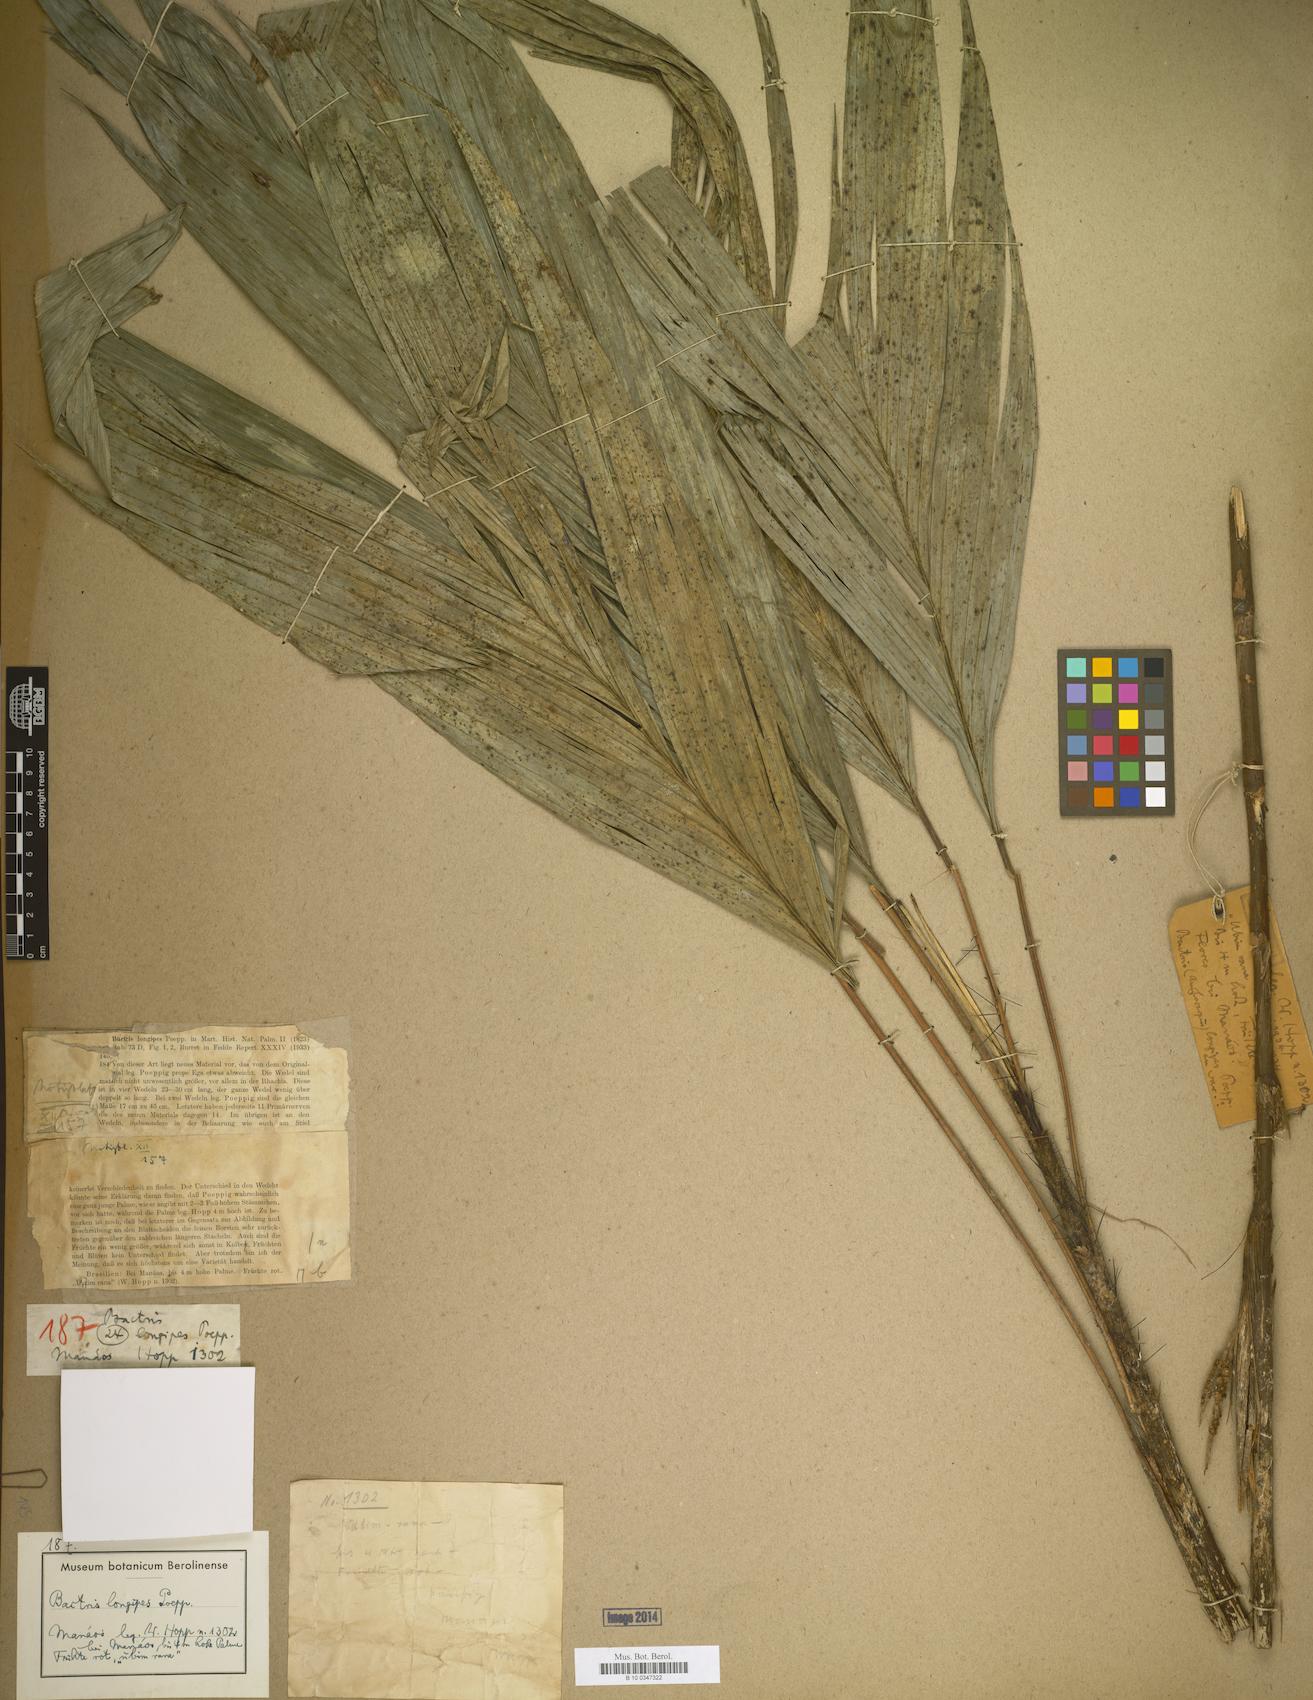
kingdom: Plantae
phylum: Tracheophyta
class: Liliopsida
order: Arecales
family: Arecaceae
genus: Bactris
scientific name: Bactris hirta
